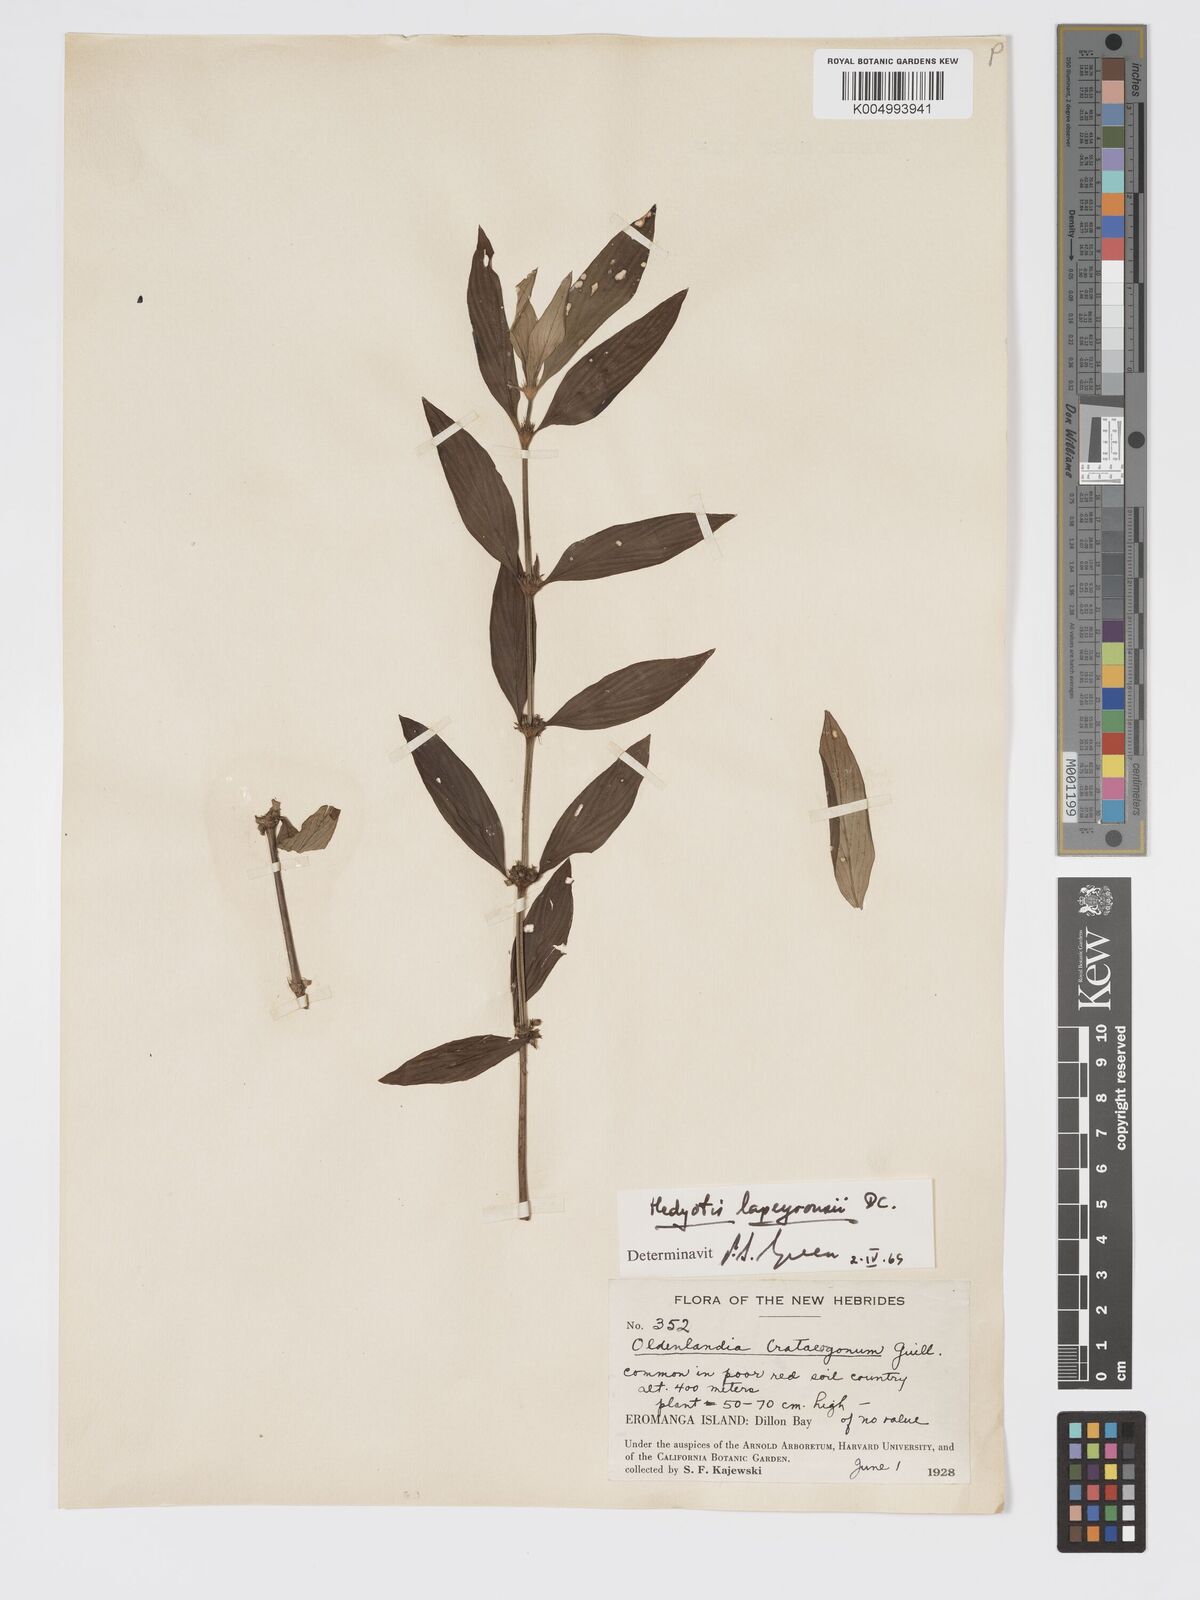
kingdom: Plantae
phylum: Tracheophyta
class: Magnoliopsida
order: Gentianales
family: Rubiaceae
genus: Exallage
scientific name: Exallage lapeyrousei
